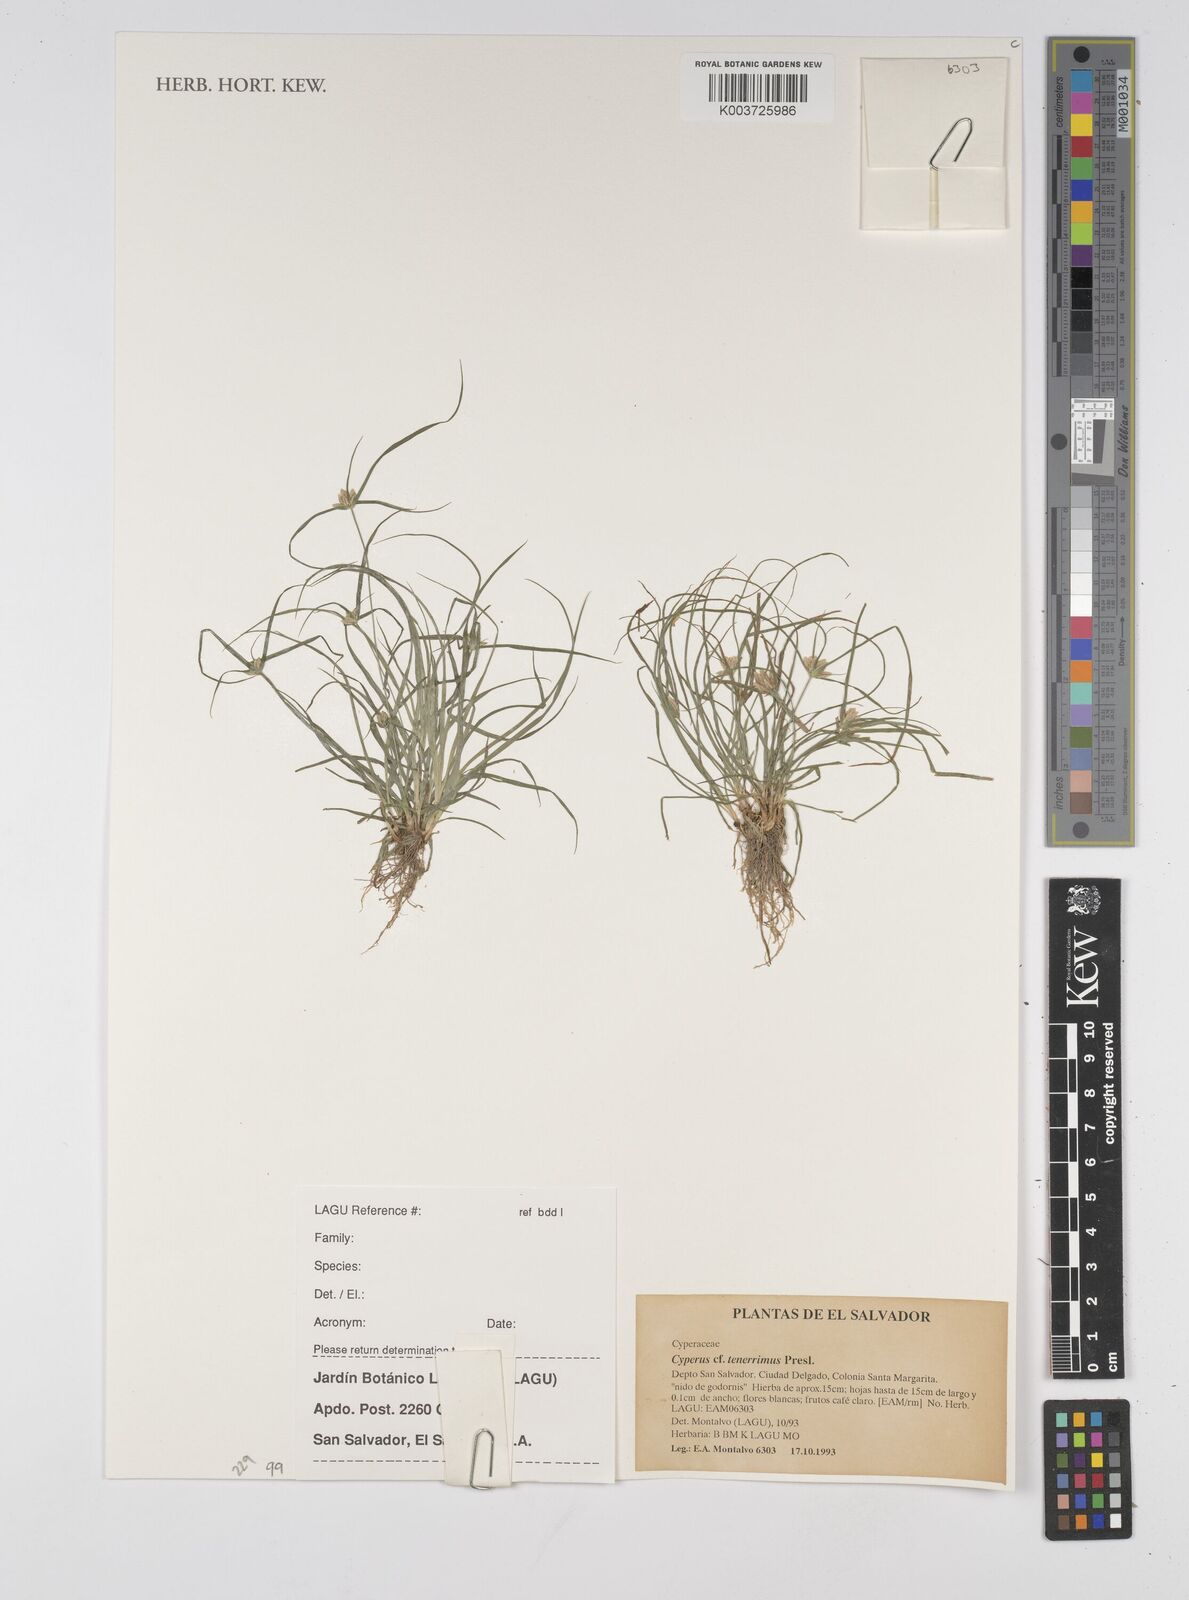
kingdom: Plantae
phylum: Tracheophyta
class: Liliopsida
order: Poales
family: Cyperaceae
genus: Cyperus
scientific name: Cyperus tenerrimus
